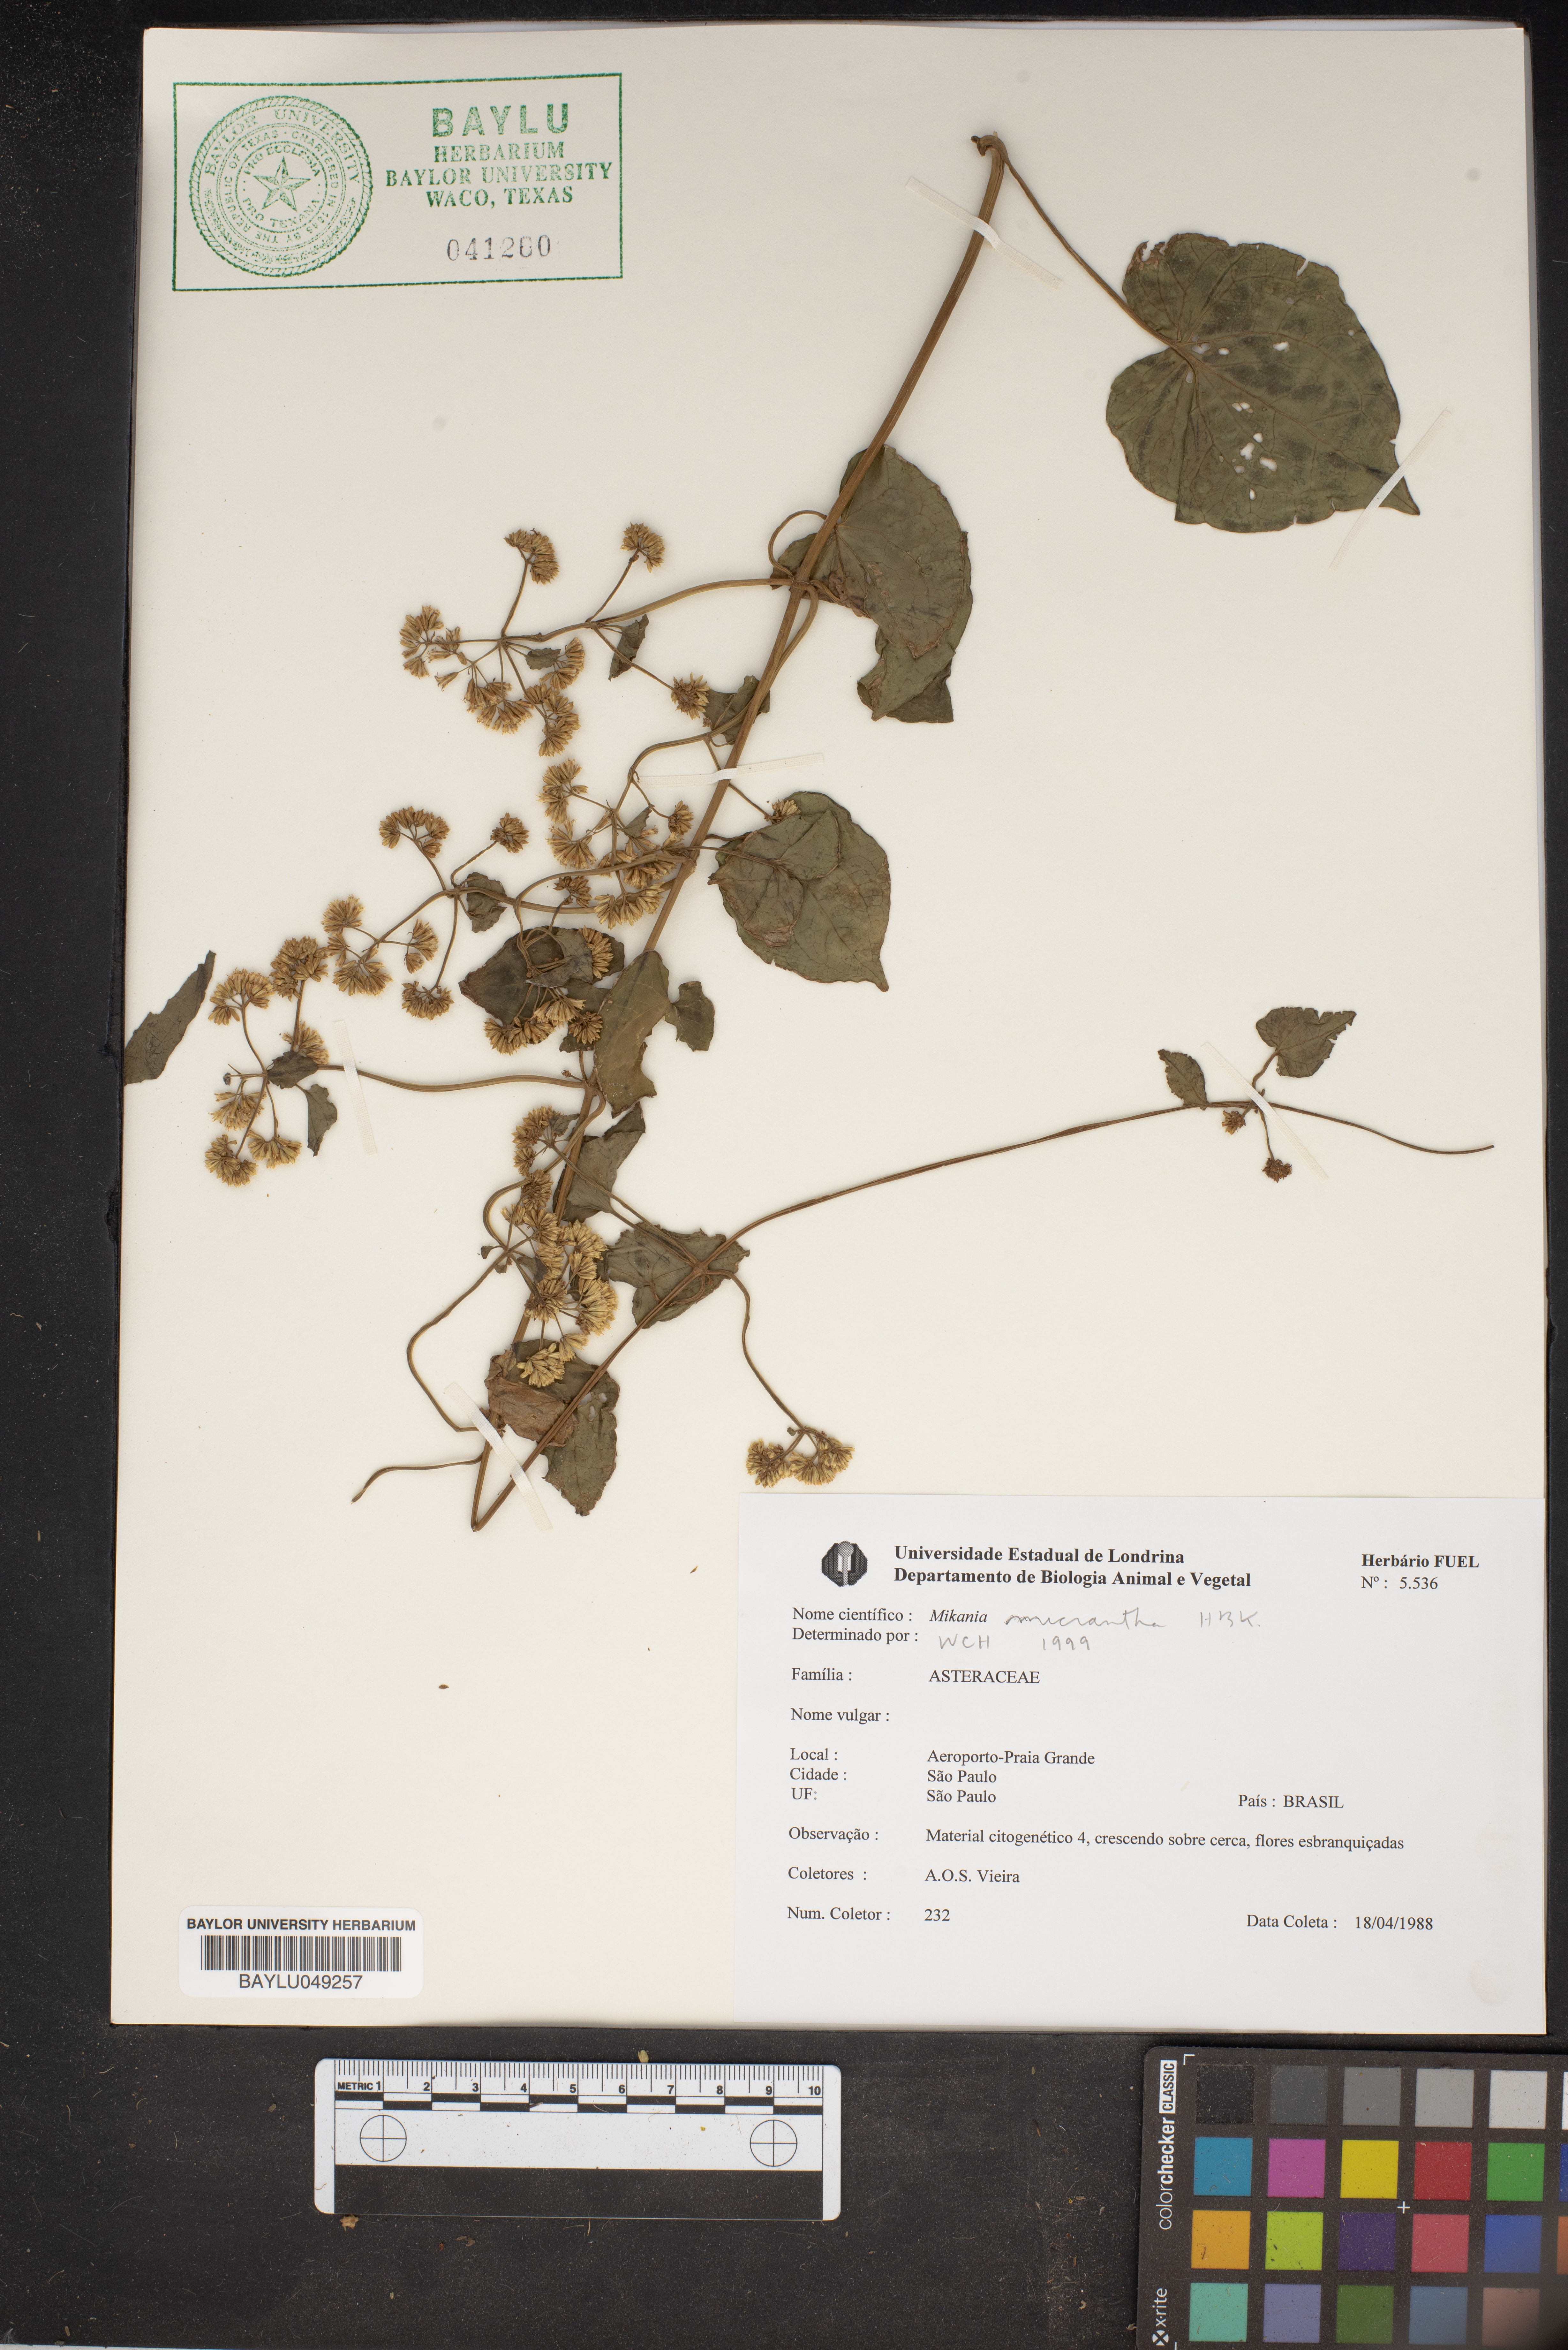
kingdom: Plantae
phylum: Tracheophyta
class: Magnoliopsida
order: Asterales
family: Asteraceae
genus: Mikania
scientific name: Mikania micrantha
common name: Mile-a-minute
